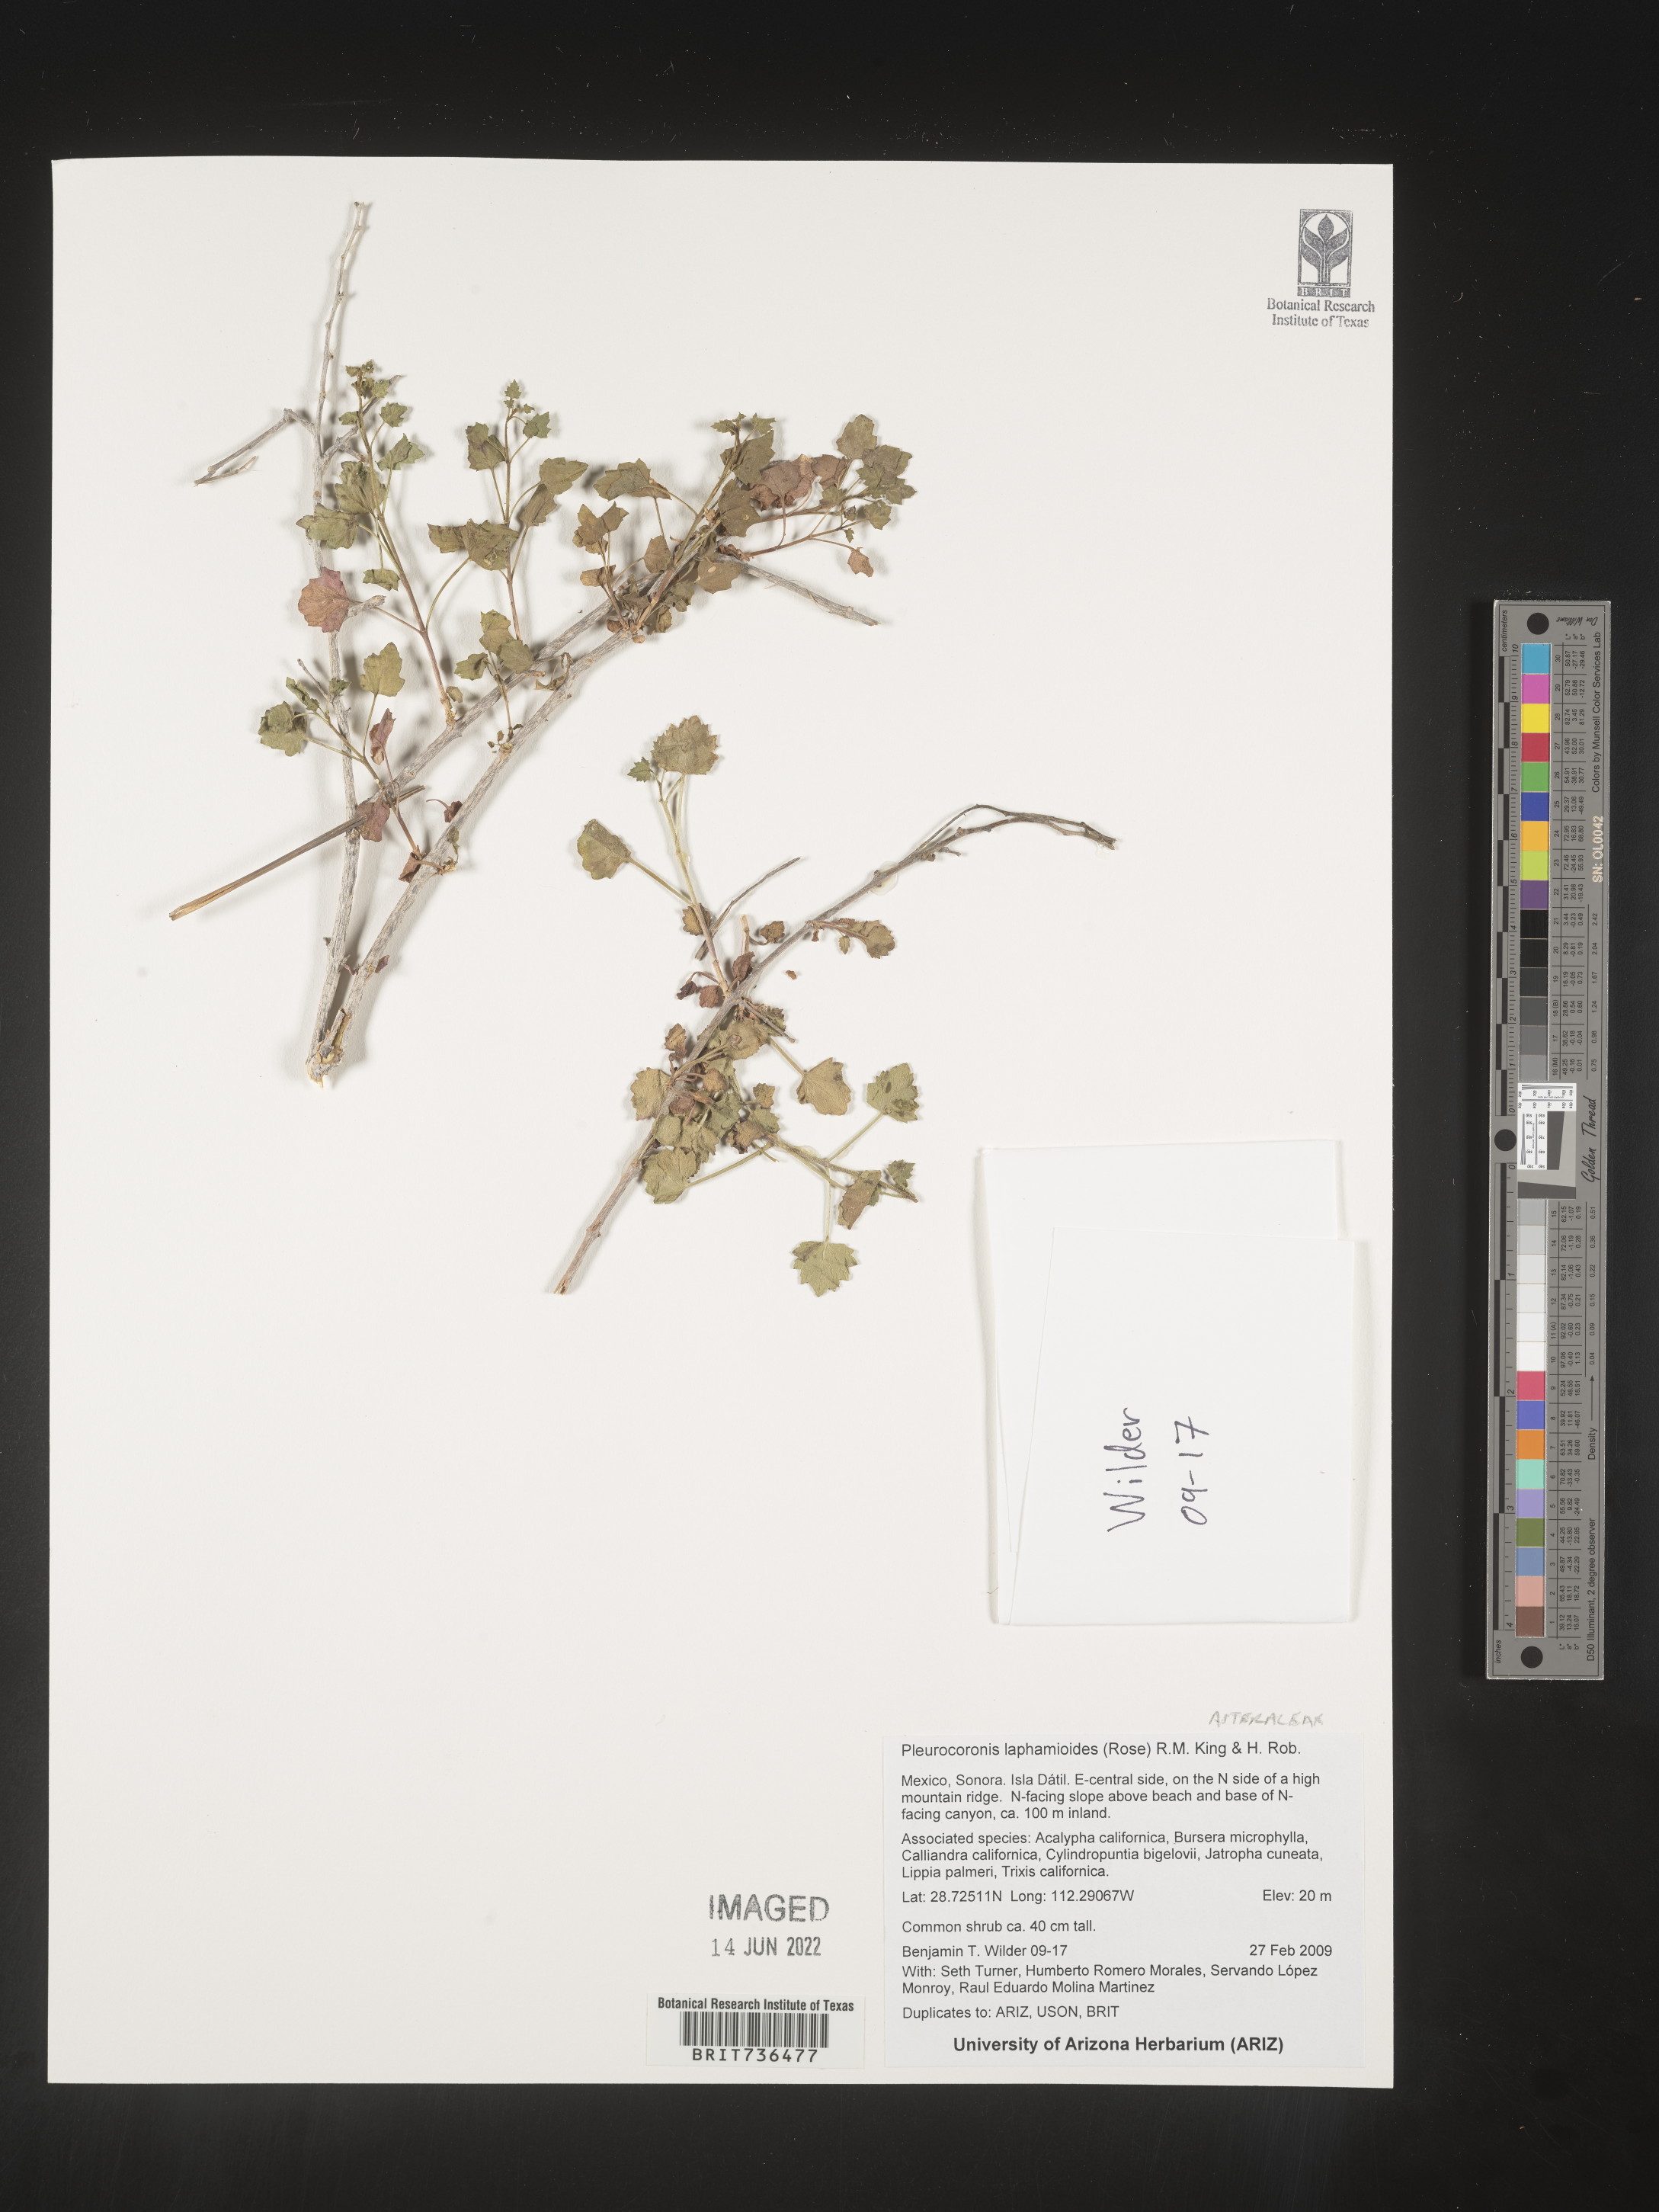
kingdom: Plantae
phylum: Tracheophyta
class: Magnoliopsida
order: Asterales
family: Asteraceae
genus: Pleurocoronis
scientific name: Pleurocoronis
